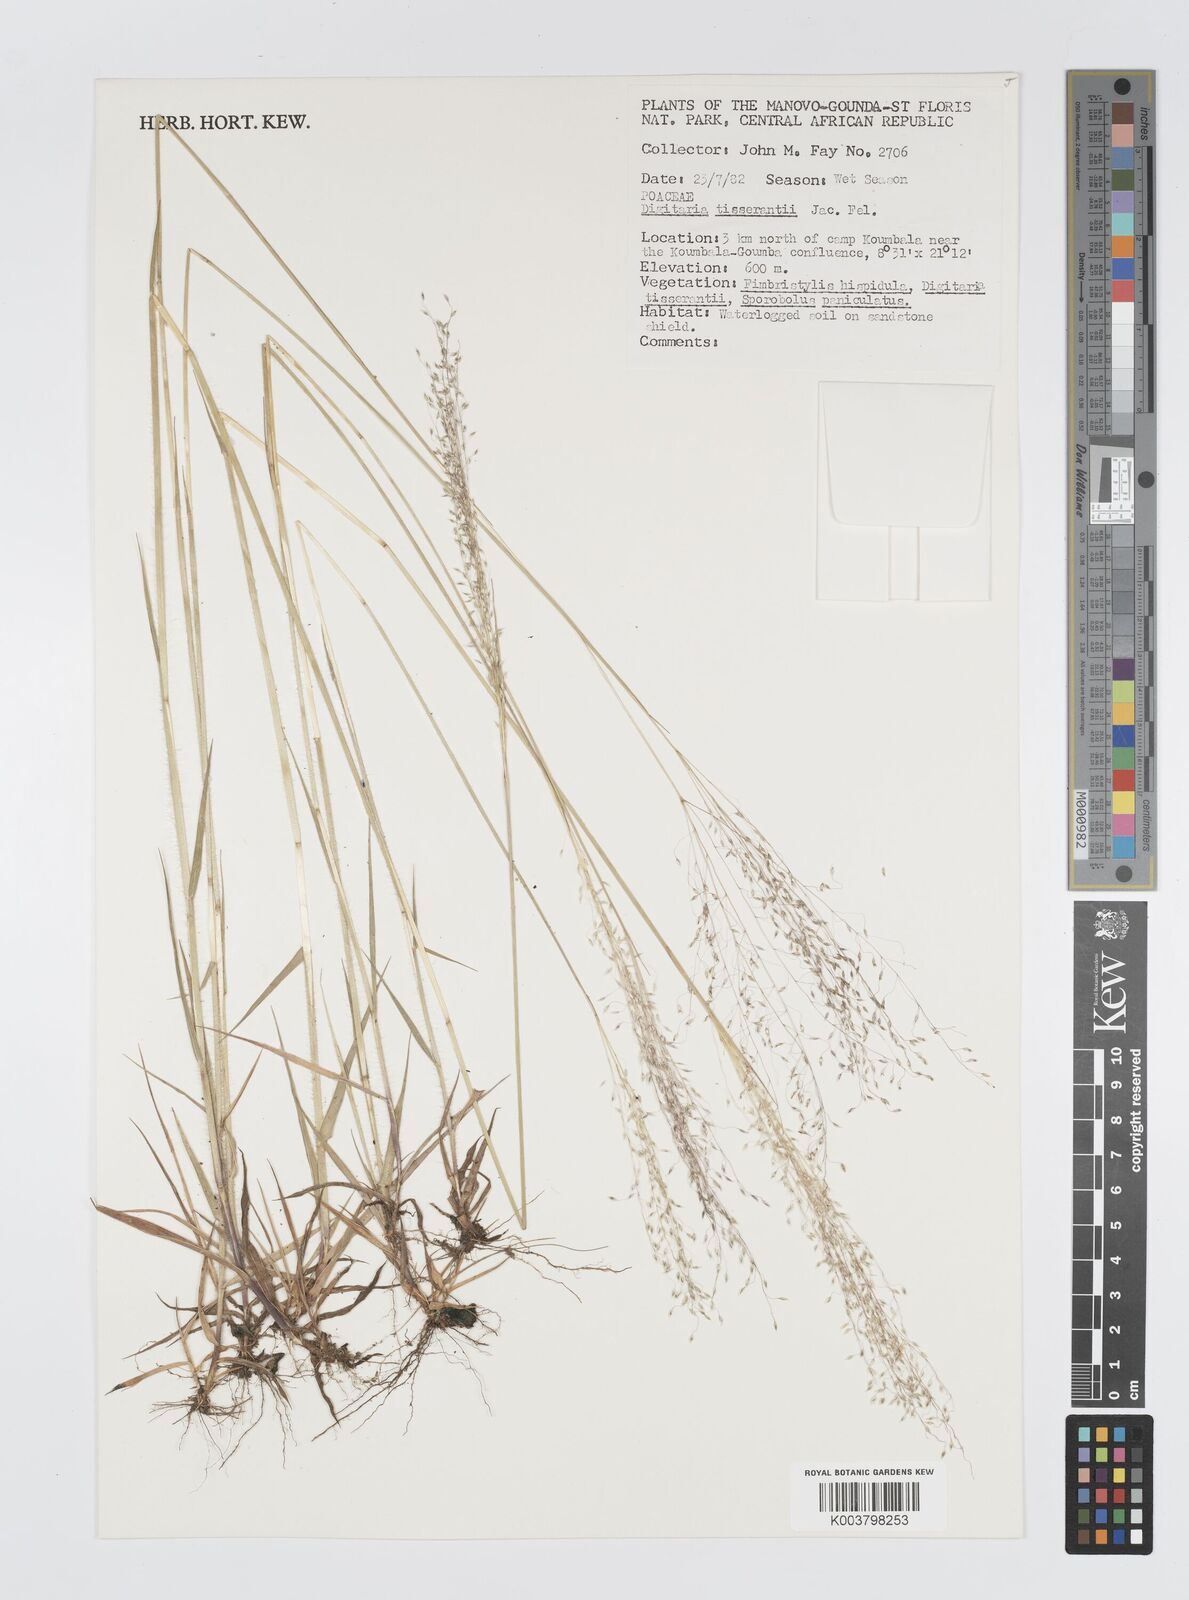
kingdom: Plantae
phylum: Tracheophyta
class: Liliopsida
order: Poales
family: Poaceae
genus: Digitaria
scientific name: Digitaria tisserantii
